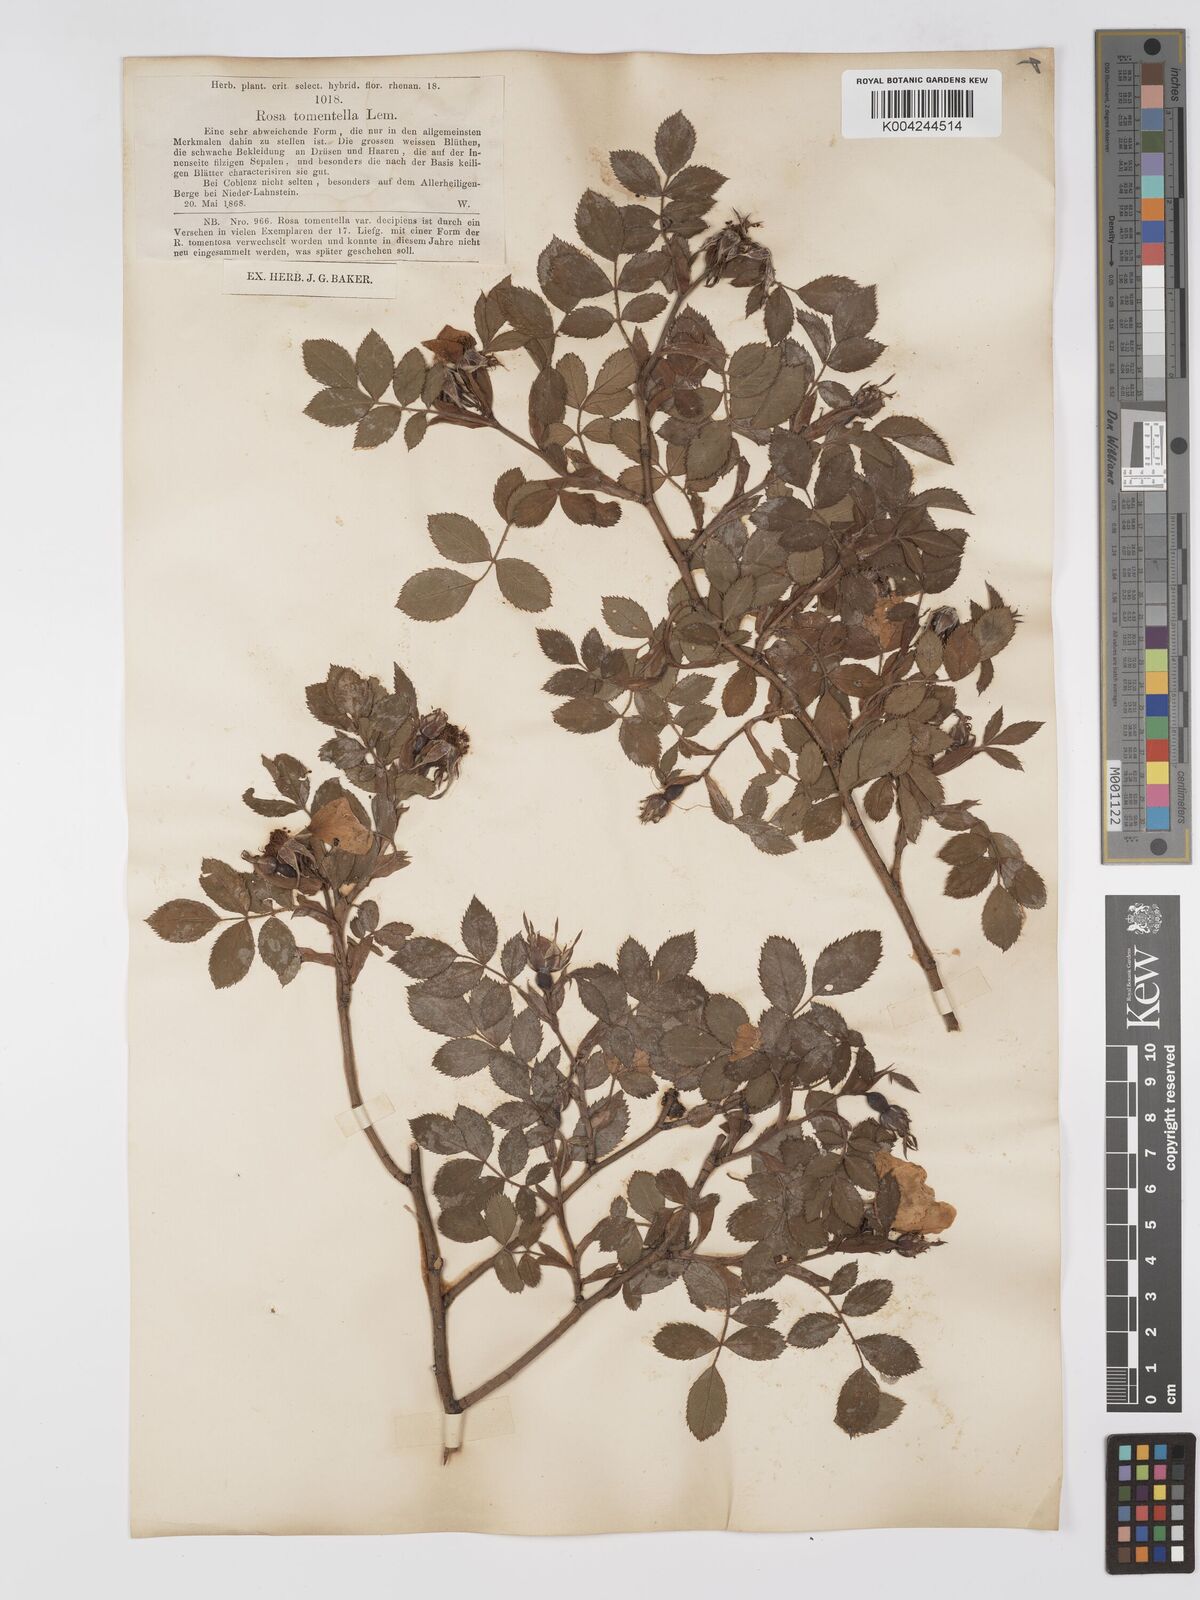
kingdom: Plantae
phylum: Tracheophyta
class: Magnoliopsida
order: Rosales
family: Rosaceae
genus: Rosa
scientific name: Rosa obtusifolia
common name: Round-leaved dog-rose
